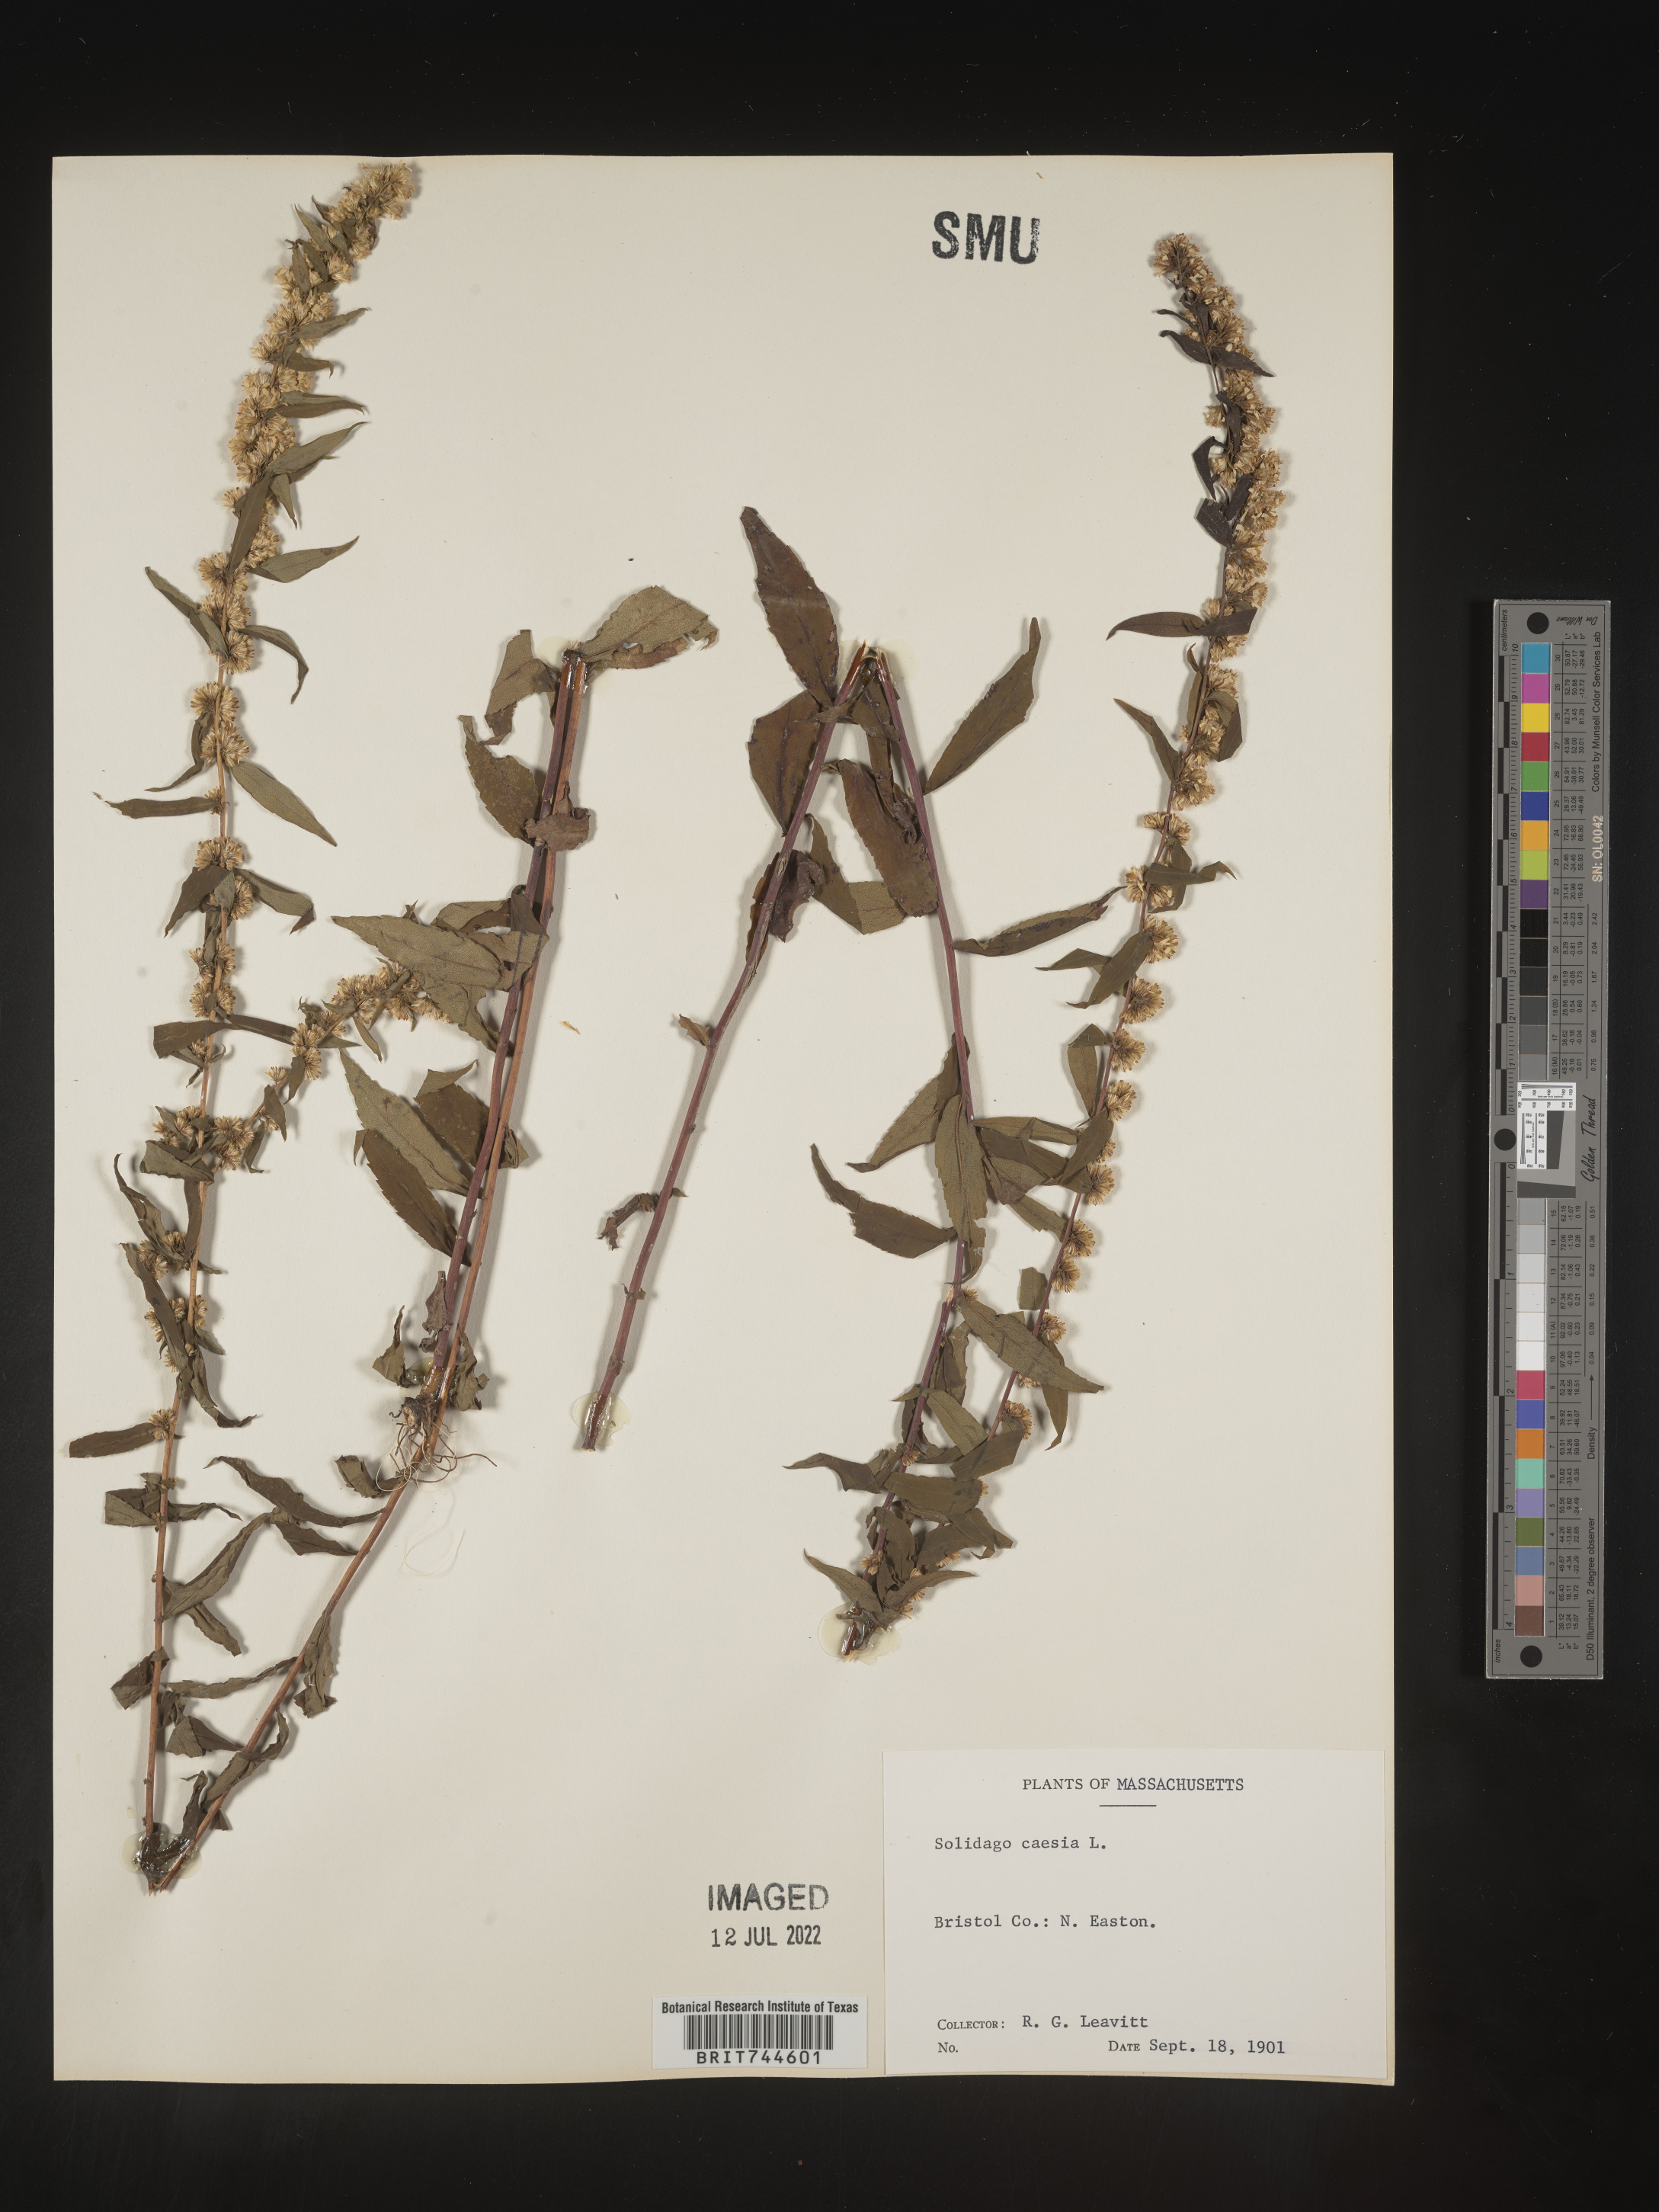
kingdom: Plantae
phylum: Tracheophyta
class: Magnoliopsida
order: Asterales
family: Asteraceae
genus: Solidago
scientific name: Solidago caesia
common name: Woodland goldenrod
